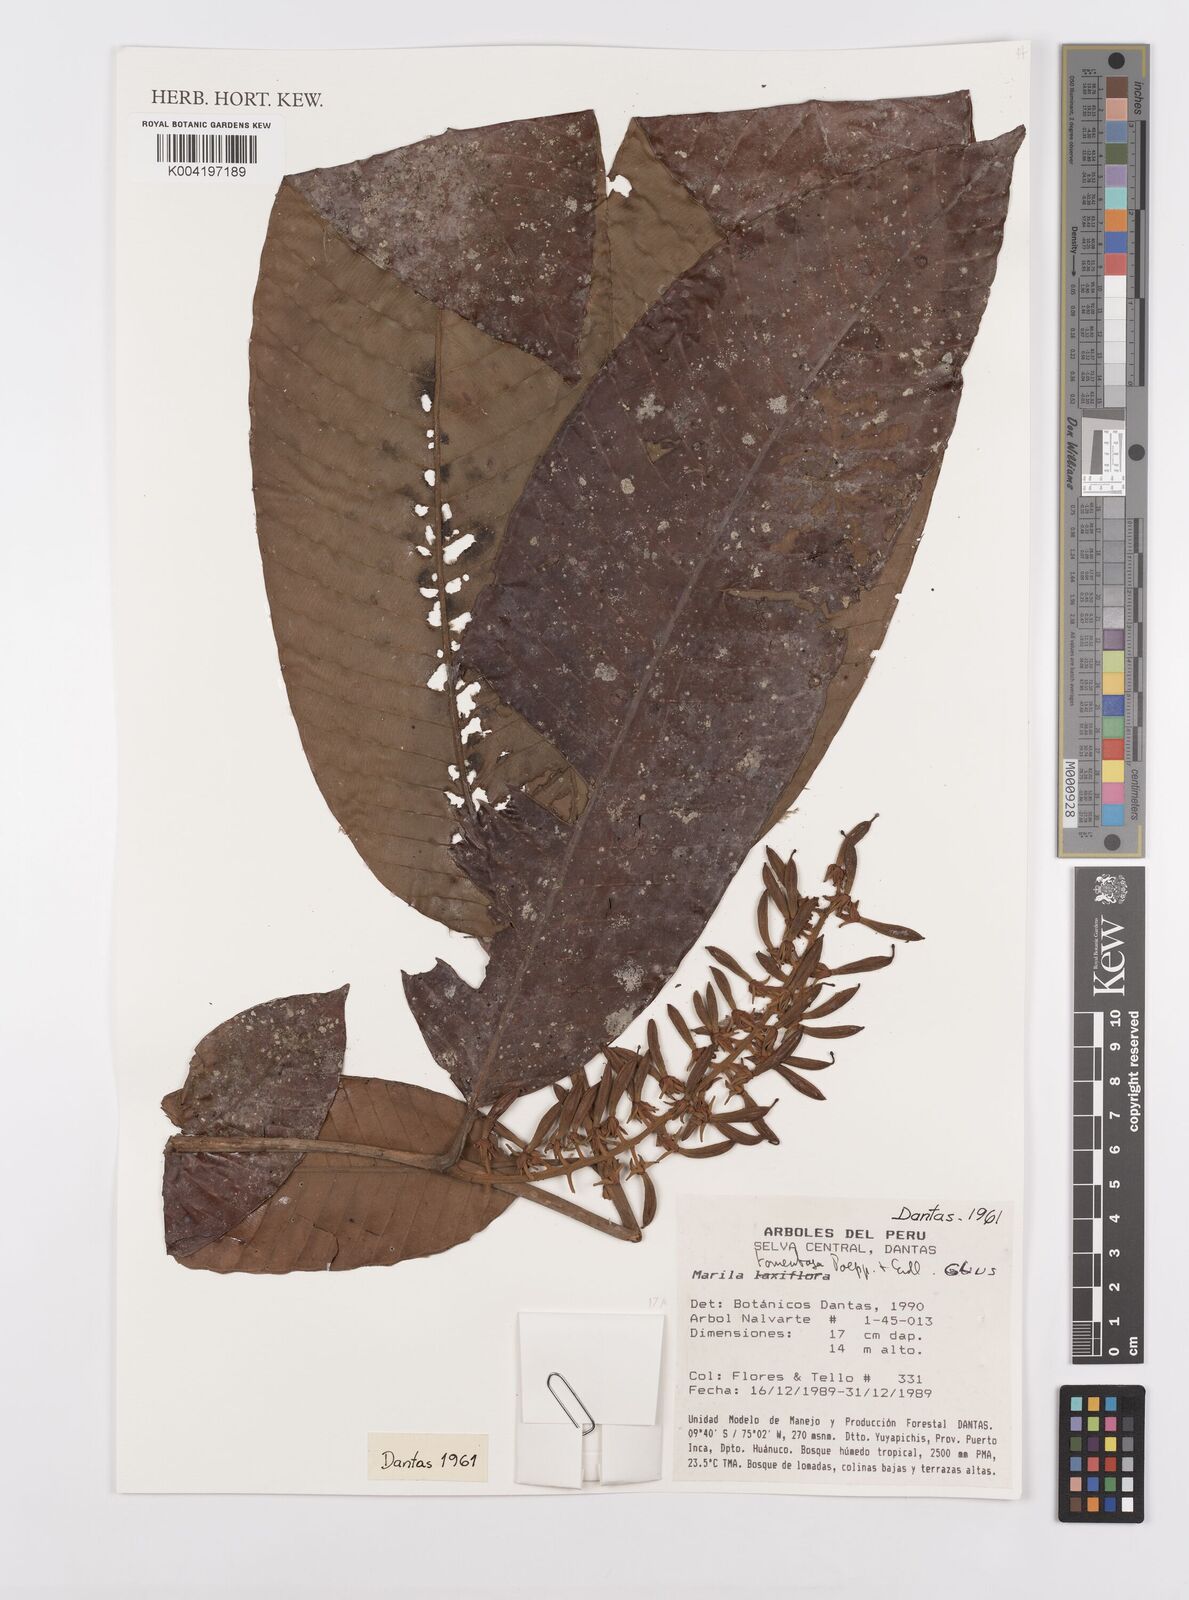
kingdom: Plantae
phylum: Tracheophyta
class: Magnoliopsida
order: Malpighiales
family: Calophyllaceae
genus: Marila
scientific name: Marila tomentosa
